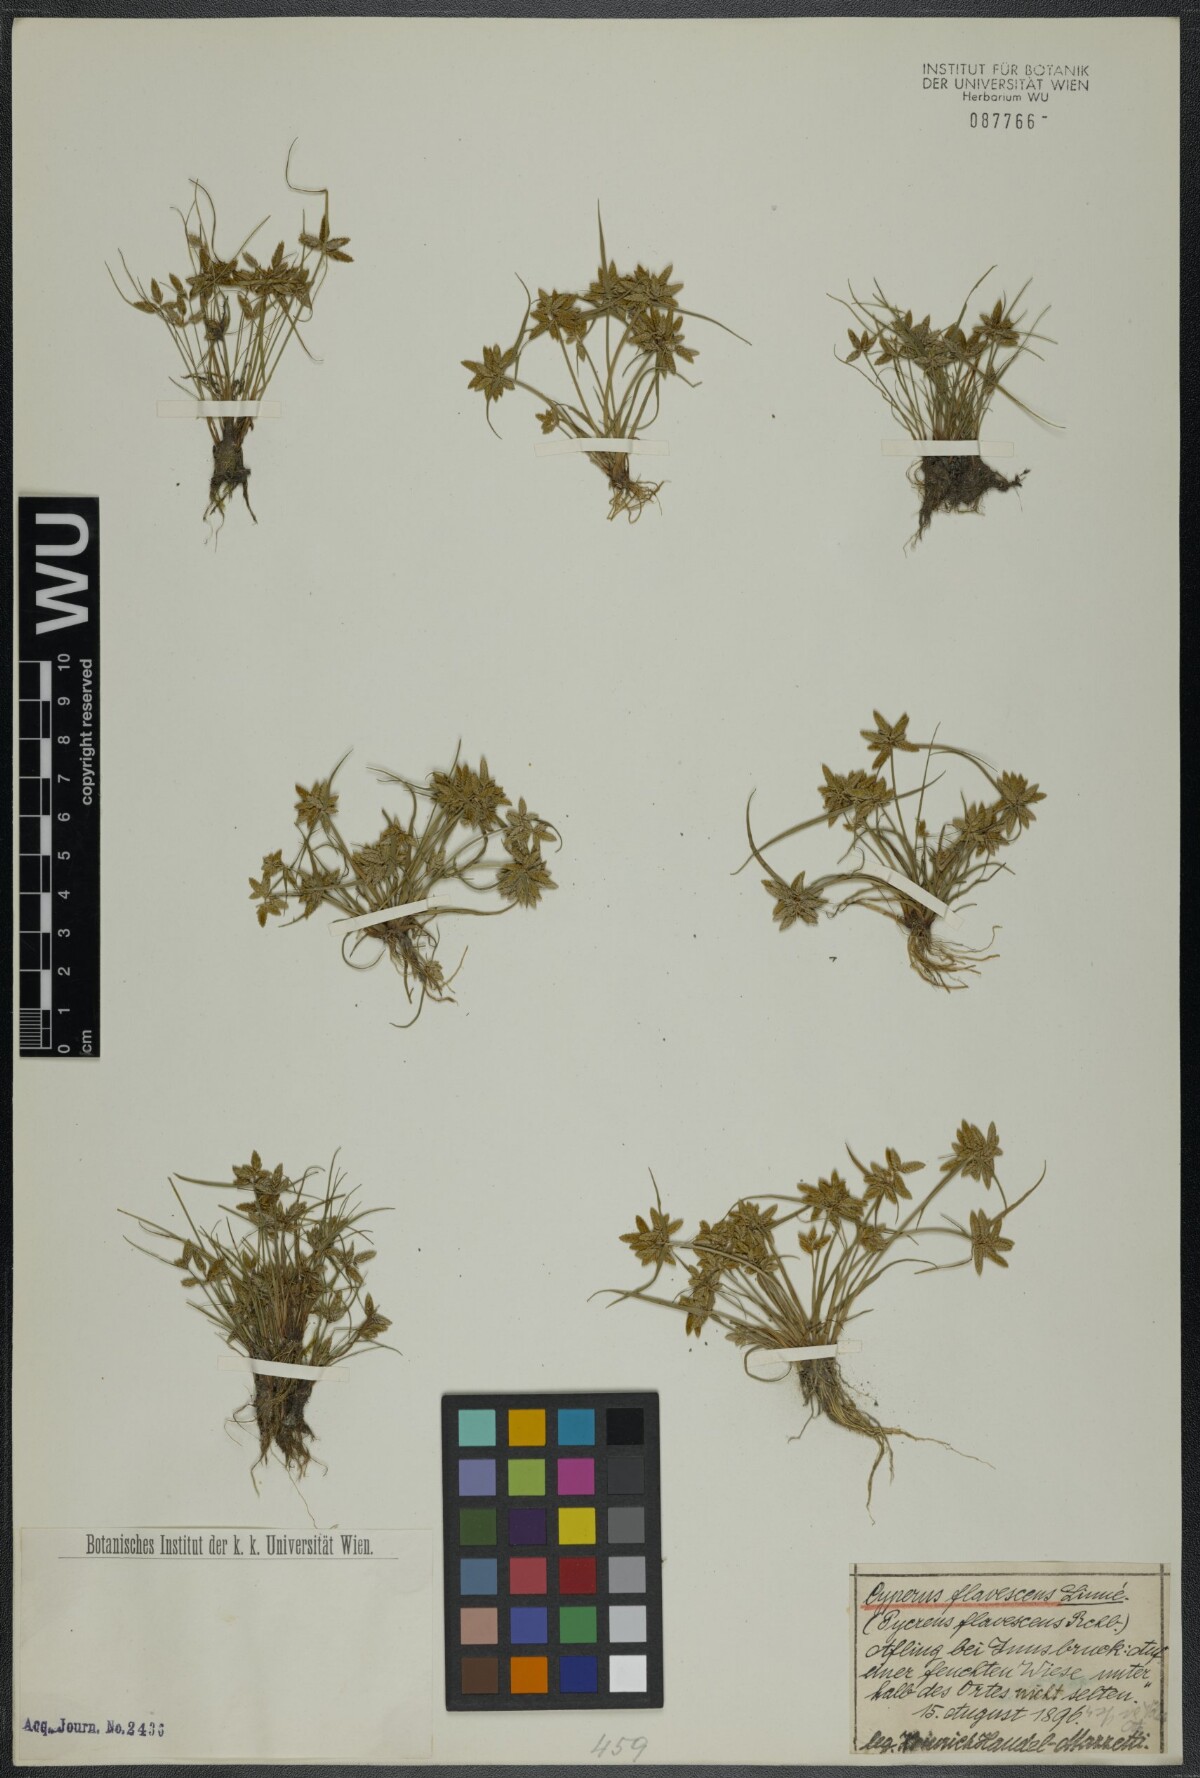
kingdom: Plantae
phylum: Tracheophyta
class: Liliopsida
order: Poales
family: Cyperaceae
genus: Cyperus
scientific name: Cyperus flavescens
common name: Yellow galingale
